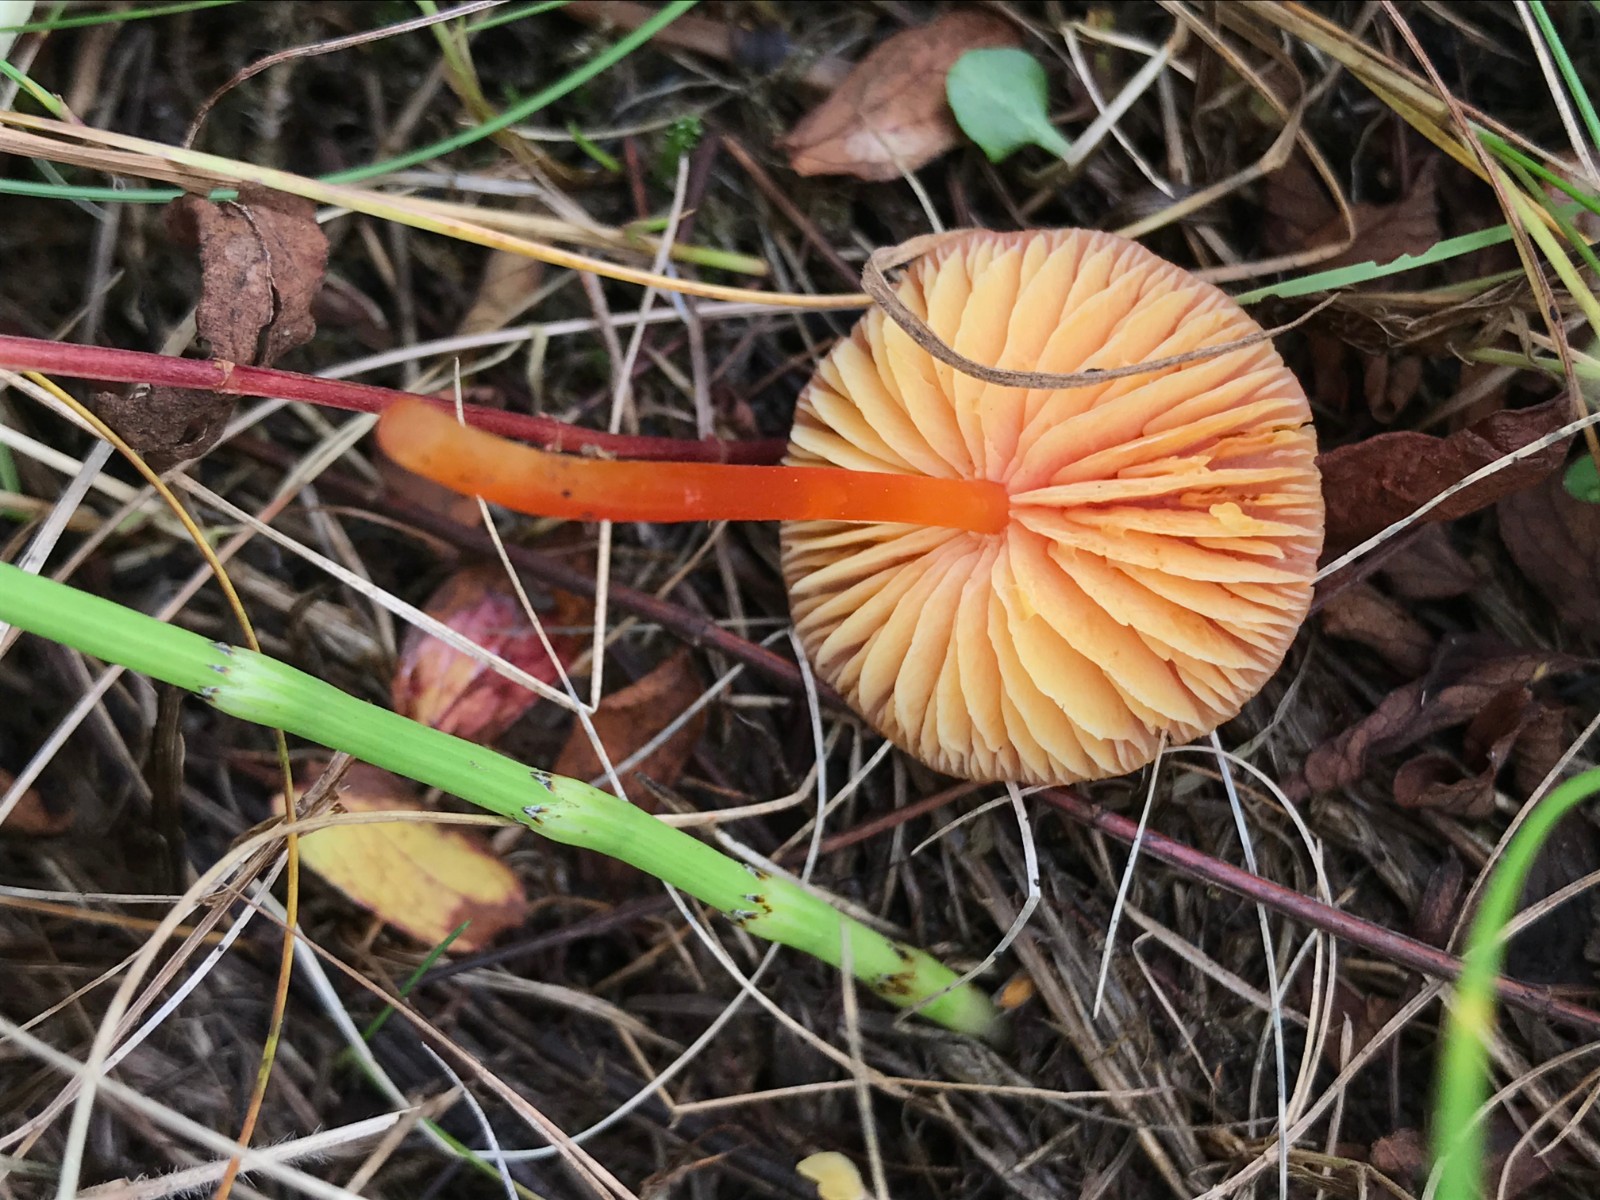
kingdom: Fungi
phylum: Basidiomycota
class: Agaricomycetes
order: Agaricales
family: Hygrophoraceae
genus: Hygrocybe
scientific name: Hygrocybe subpapillata
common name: papil-vokshat
